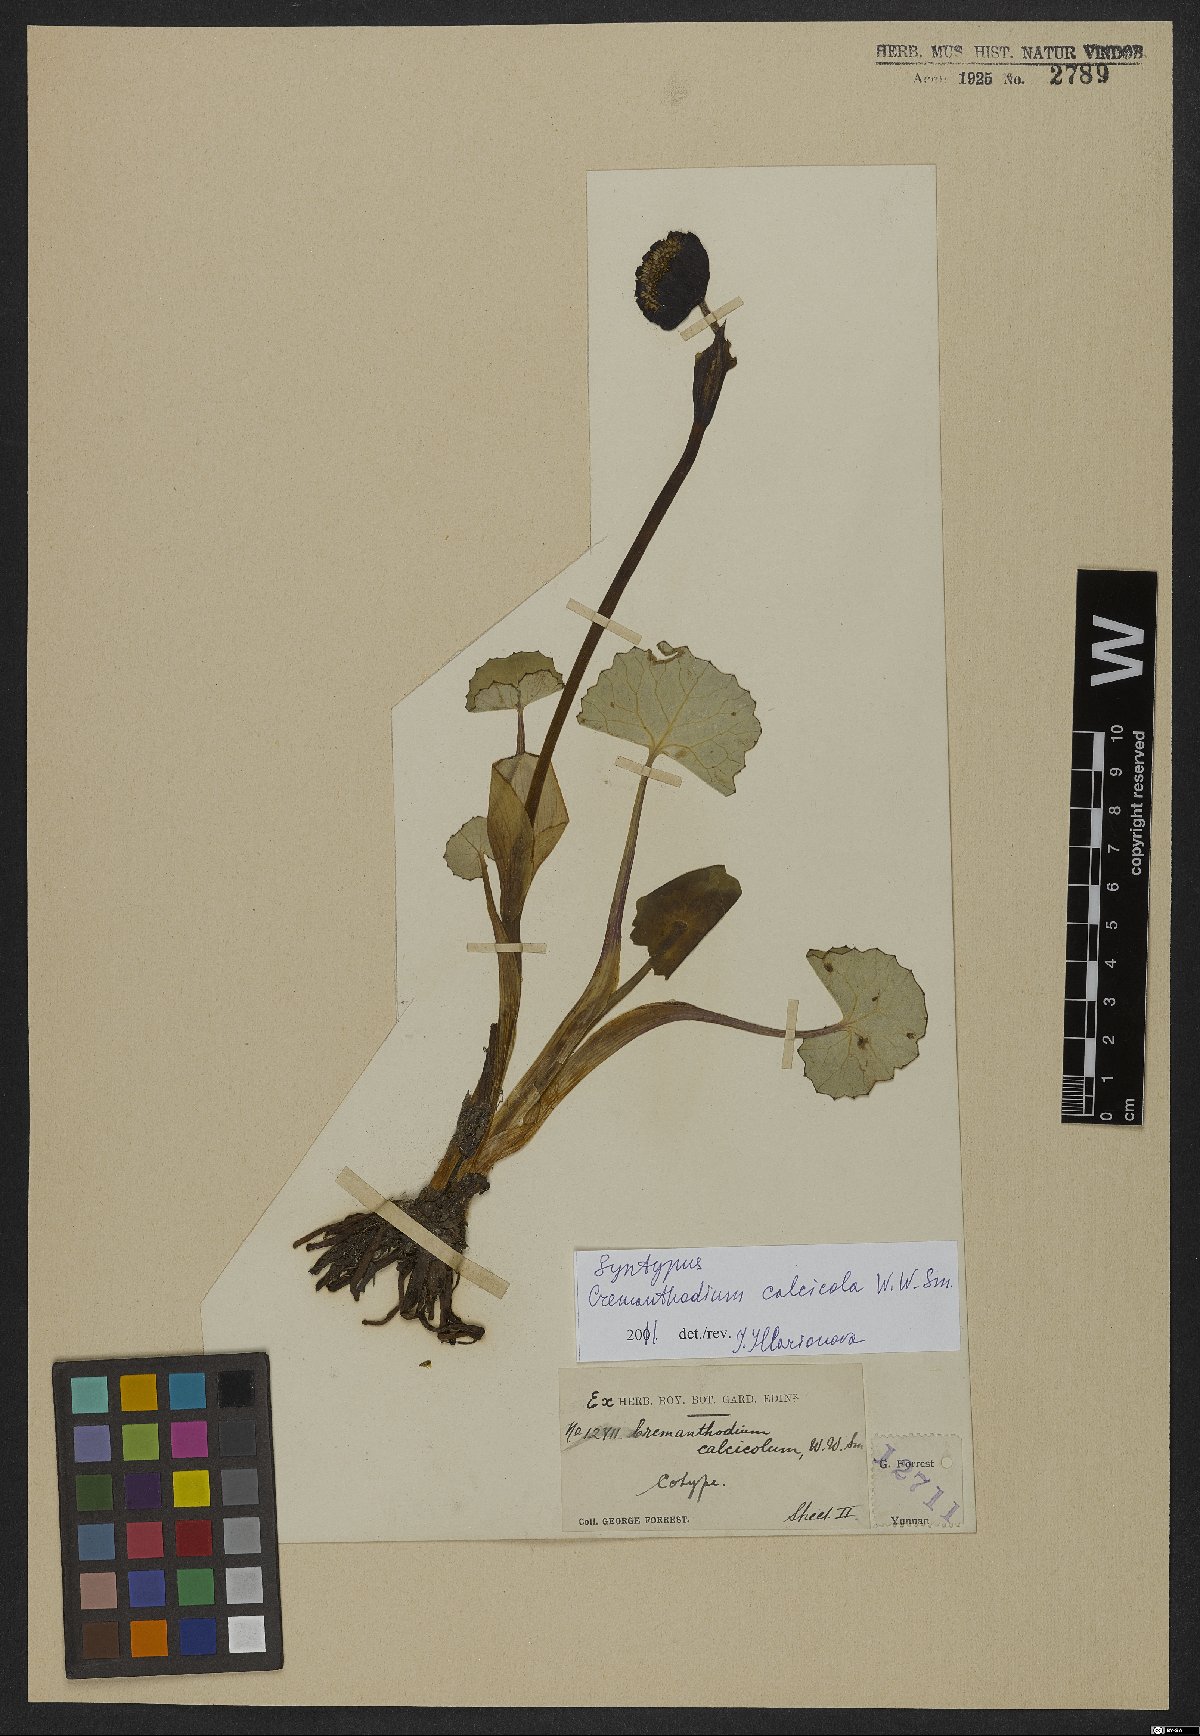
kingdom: Plantae
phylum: Tracheophyta
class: Magnoliopsida
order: Asterales
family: Asteraceae
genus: Cremanthodium
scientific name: Cremanthodium calcicola
